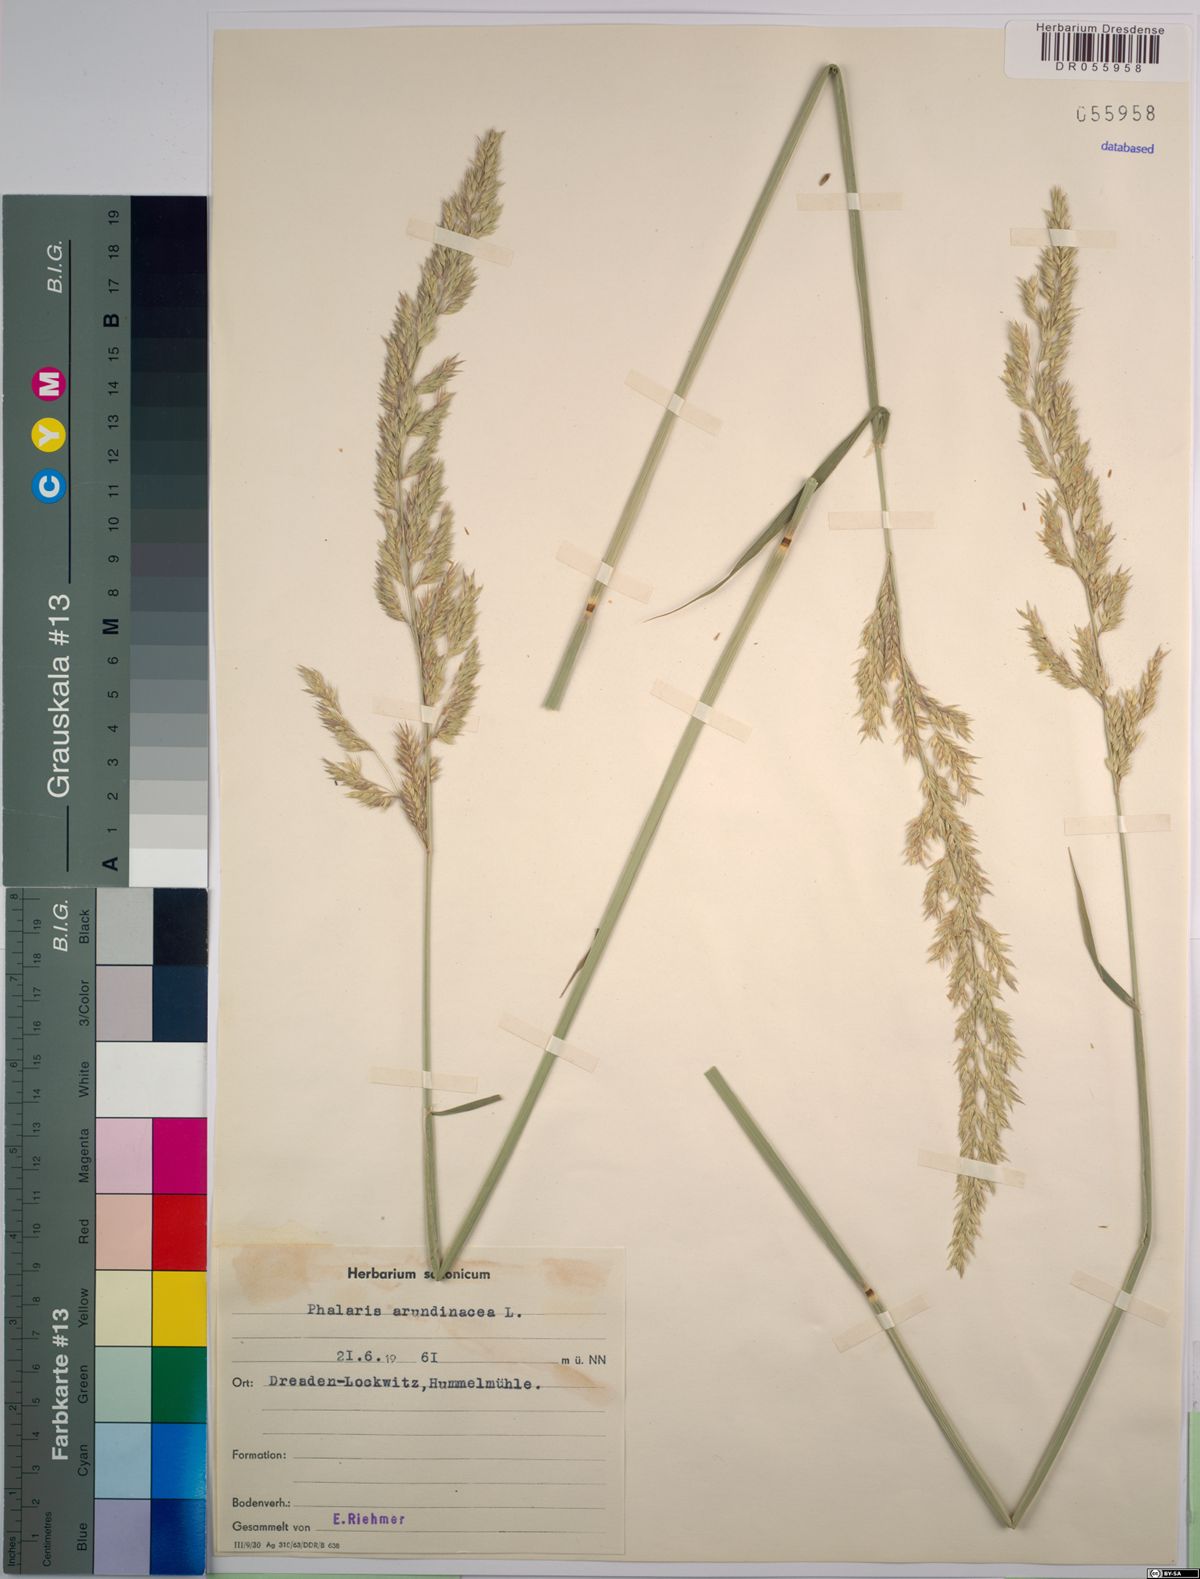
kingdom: Plantae
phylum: Tracheophyta
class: Liliopsida
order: Poales
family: Poaceae
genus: Phalaris
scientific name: Phalaris arundinacea
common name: Reed canary-grass
